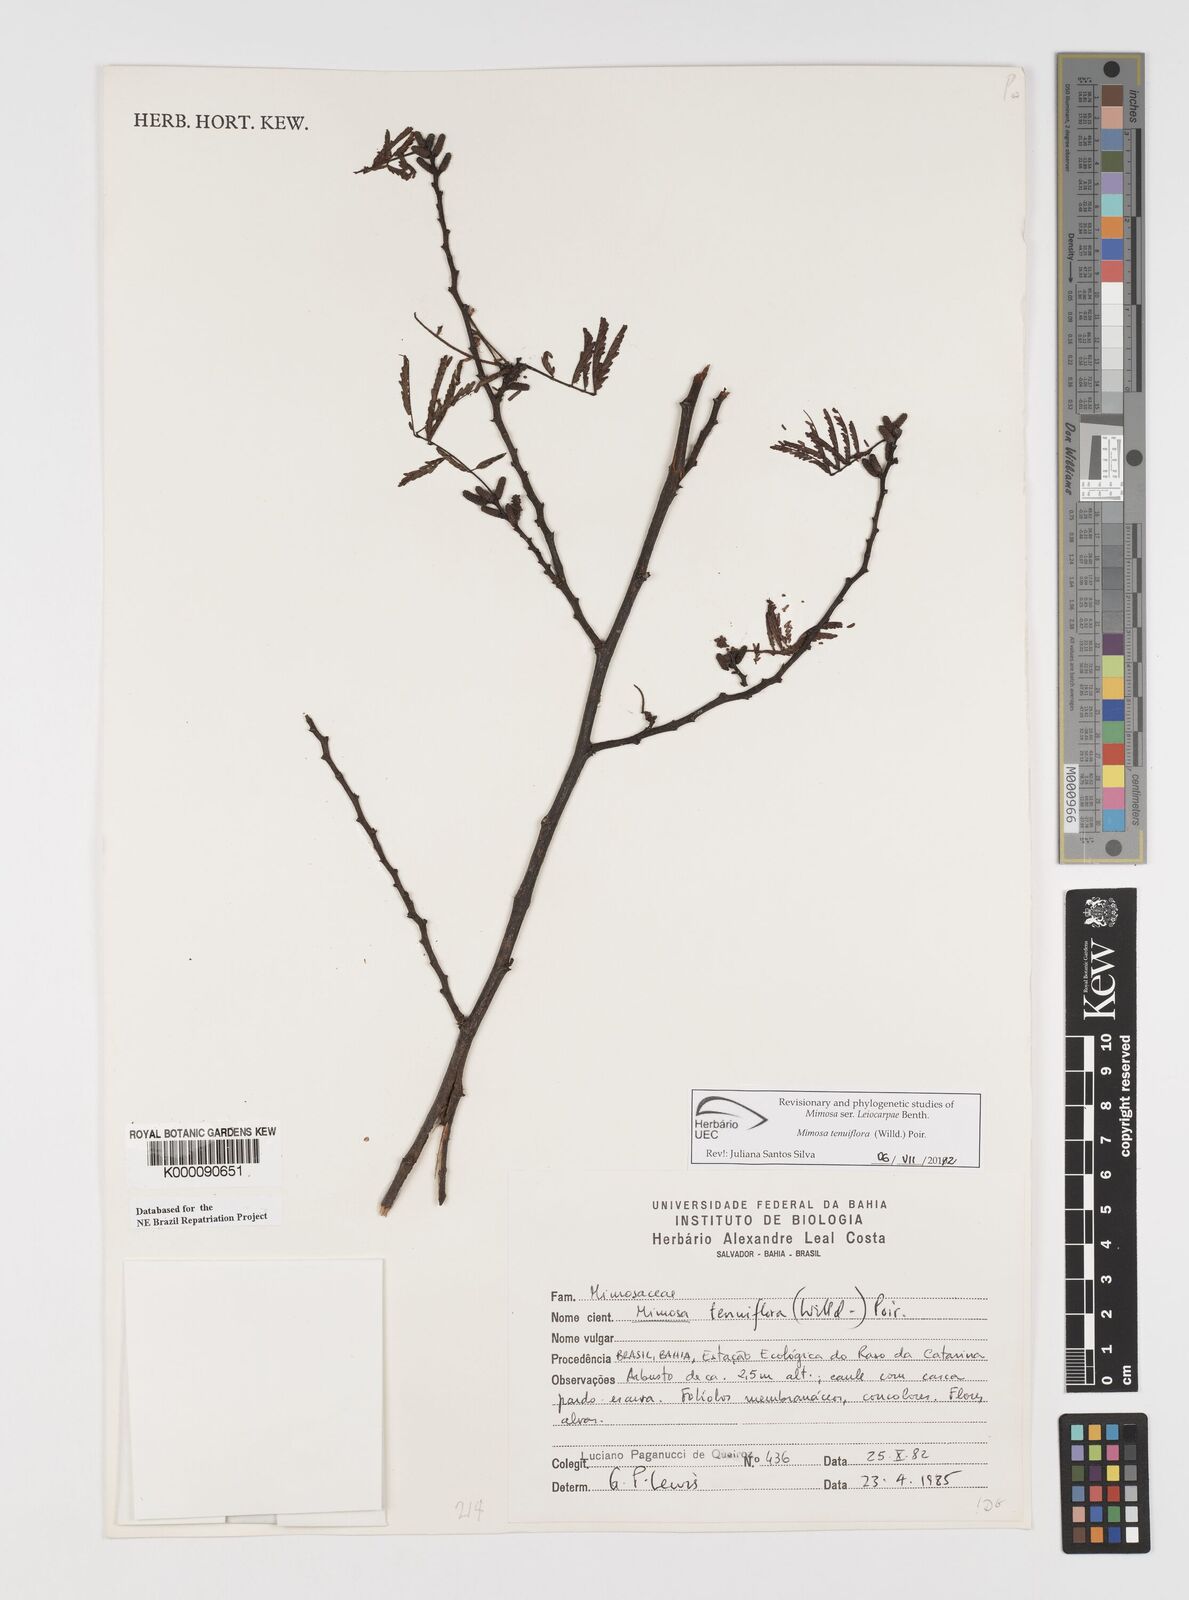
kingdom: Plantae
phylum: Tracheophyta
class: Magnoliopsida
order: Fabales
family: Fabaceae
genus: Mimosa
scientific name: Mimosa tenuiflora
